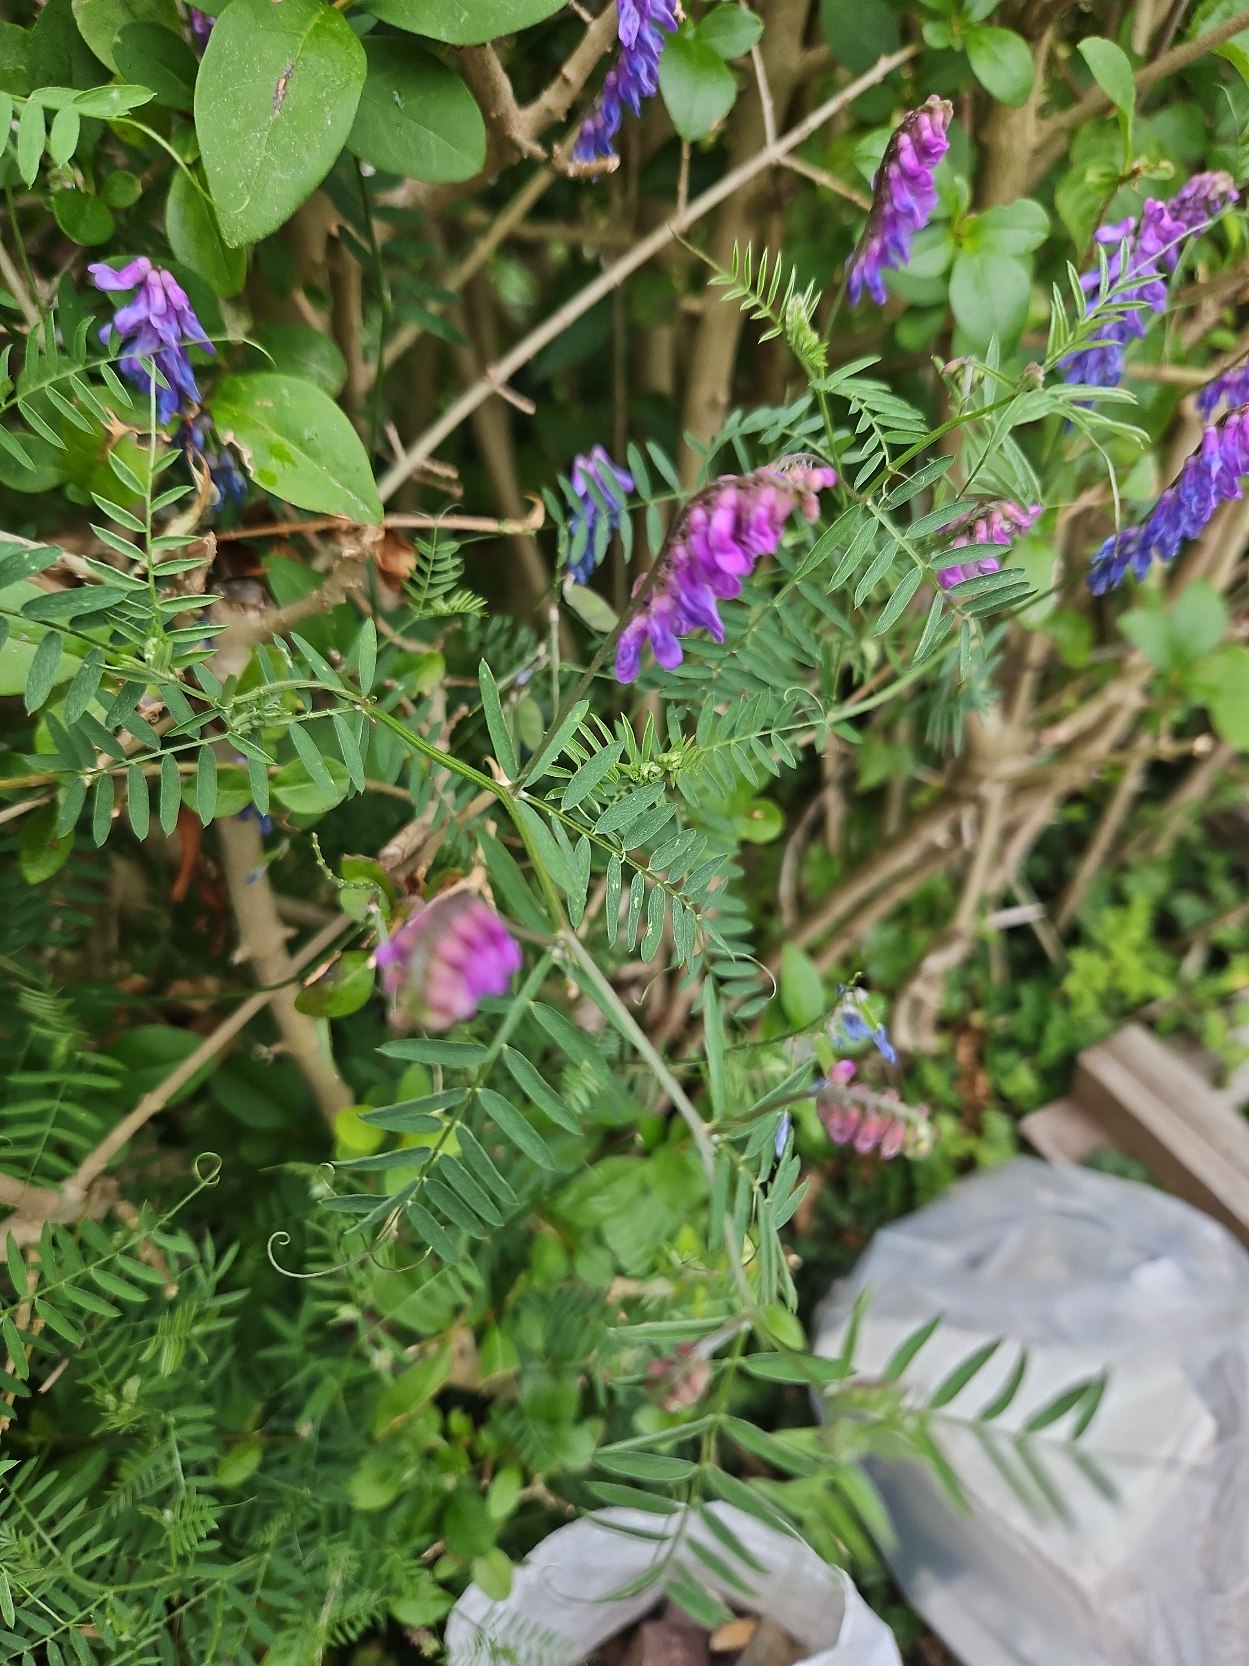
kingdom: Plantae
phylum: Tracheophyta
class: Magnoliopsida
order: Fabales
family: Fabaceae
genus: Vicia
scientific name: Vicia cracca
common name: Muse-vikke
